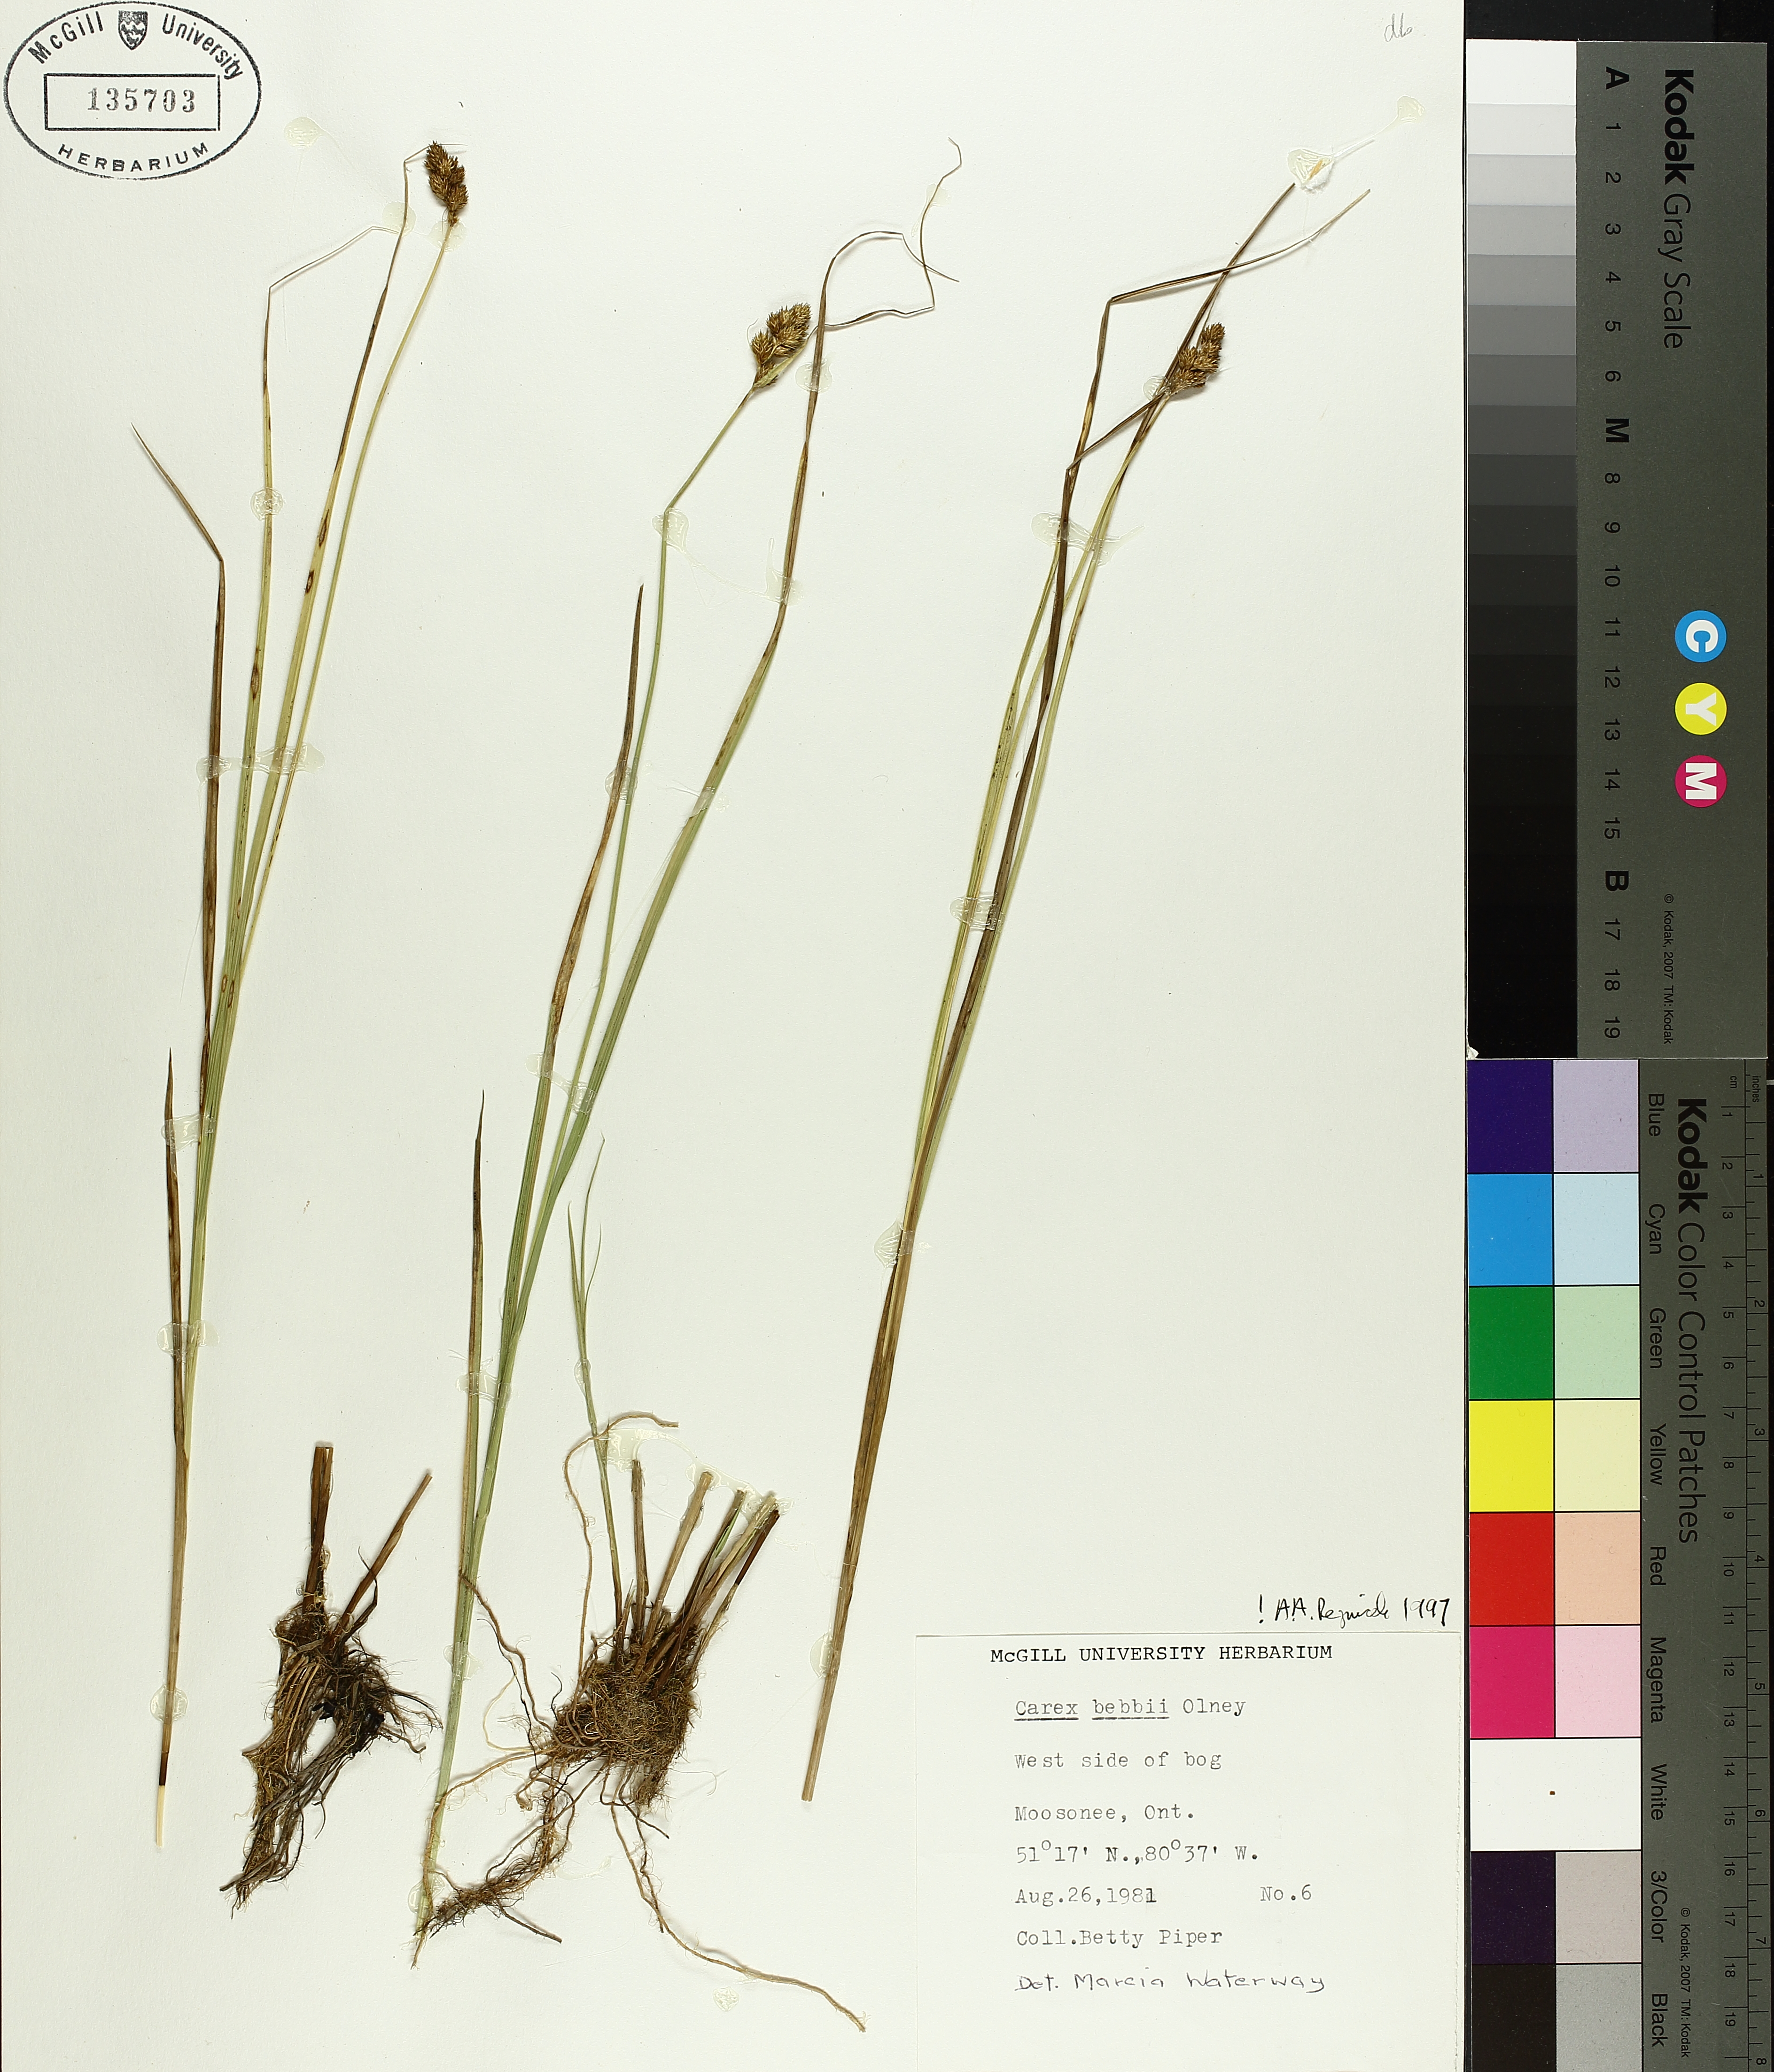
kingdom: Plantae
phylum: Tracheophyta
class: Liliopsida
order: Poales
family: Cyperaceae
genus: Carex
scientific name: Carex bebbii
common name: Bebb's sedge
